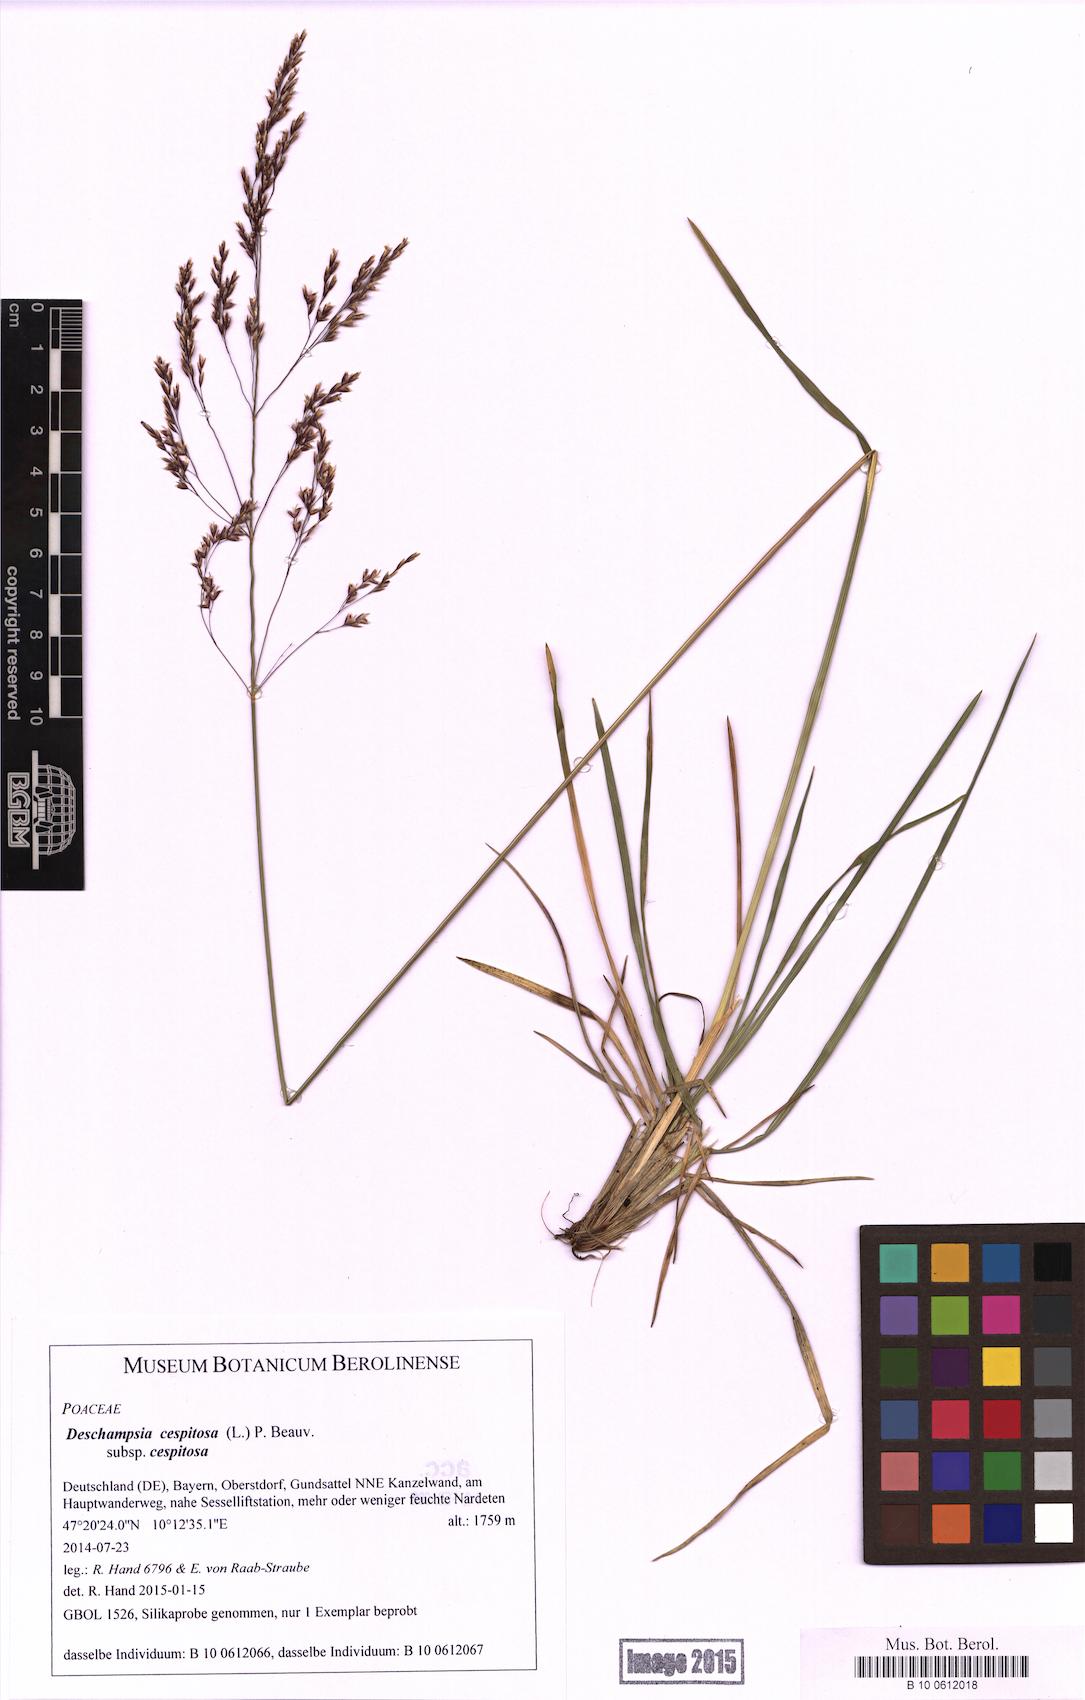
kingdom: Plantae
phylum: Tracheophyta
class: Liliopsida
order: Poales
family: Poaceae
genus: Deschampsia
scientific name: Deschampsia cespitosa
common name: Tufted hair-grass
